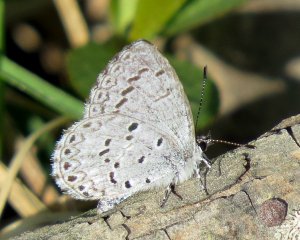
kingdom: Animalia
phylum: Arthropoda
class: Insecta
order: Lepidoptera
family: Lycaenidae
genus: Celastrina
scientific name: Celastrina lucia
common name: Northern Spring Azure
